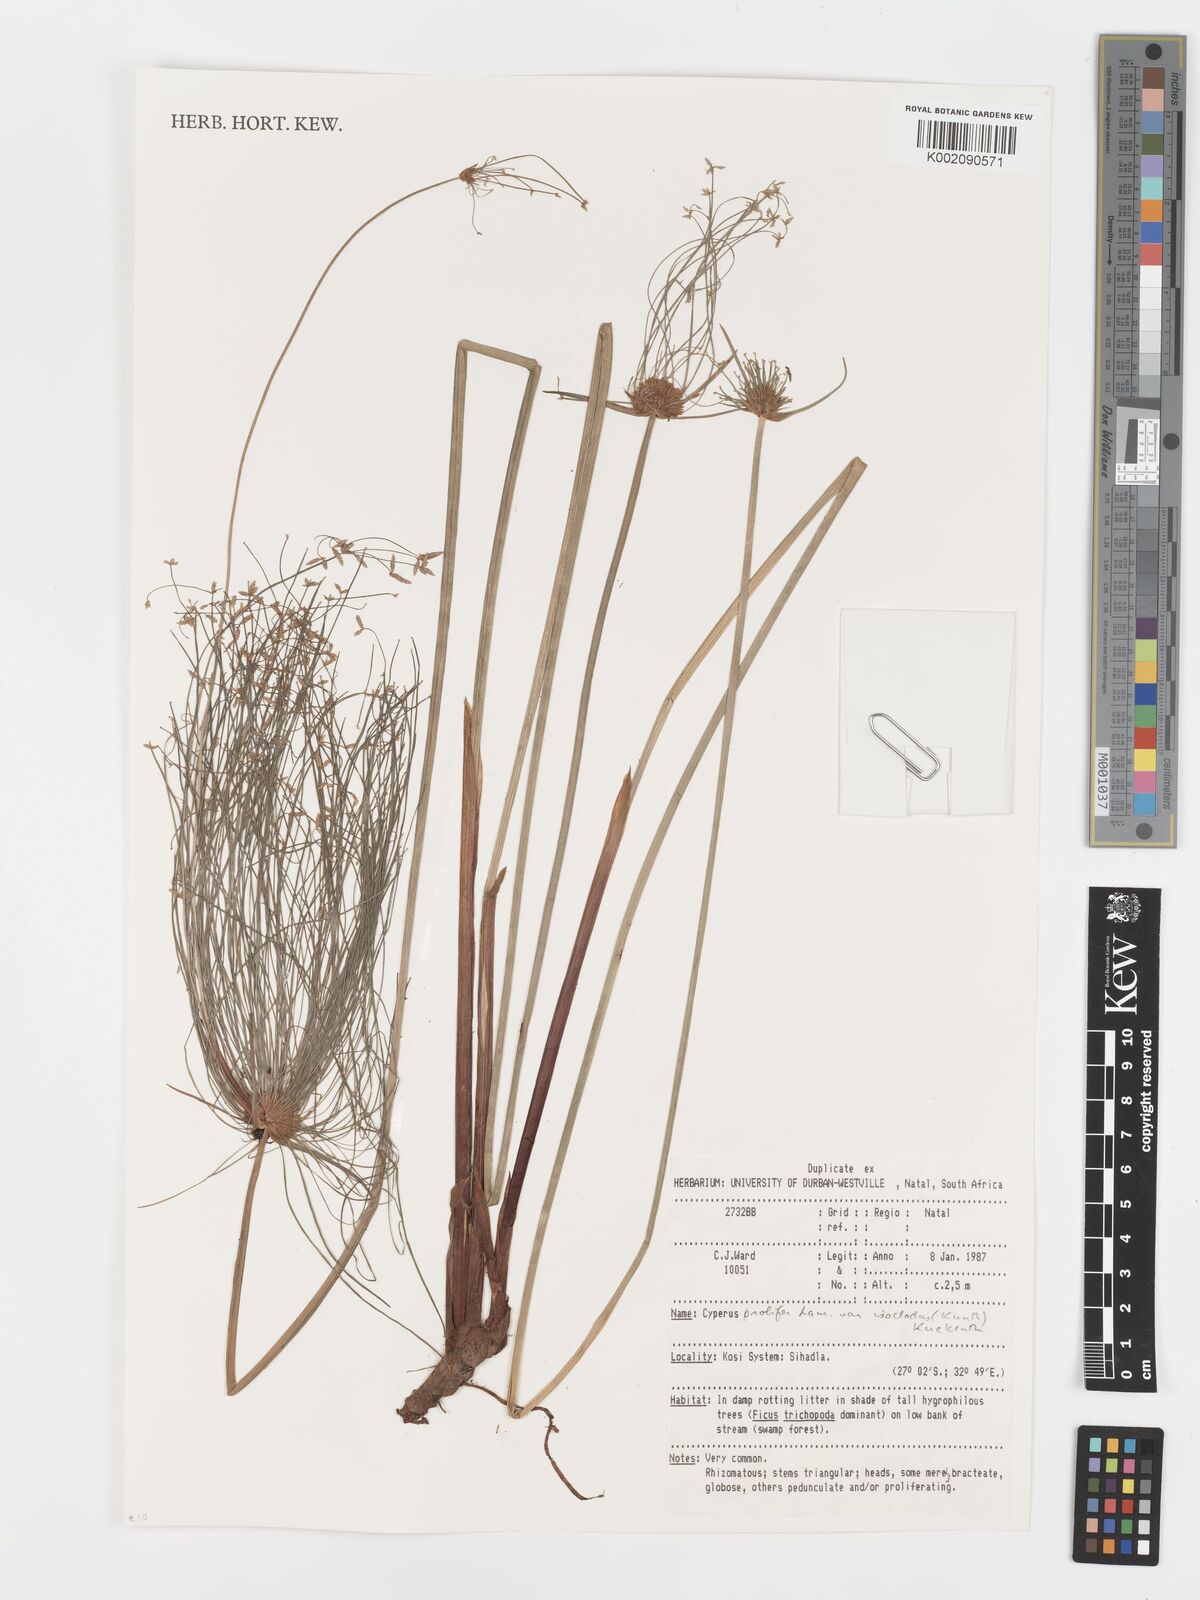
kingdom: Plantae
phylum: Tracheophyta
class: Liliopsida
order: Poales
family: Cyperaceae
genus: Cyperus
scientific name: Cyperus prolifer
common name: Miniature flatsedge
